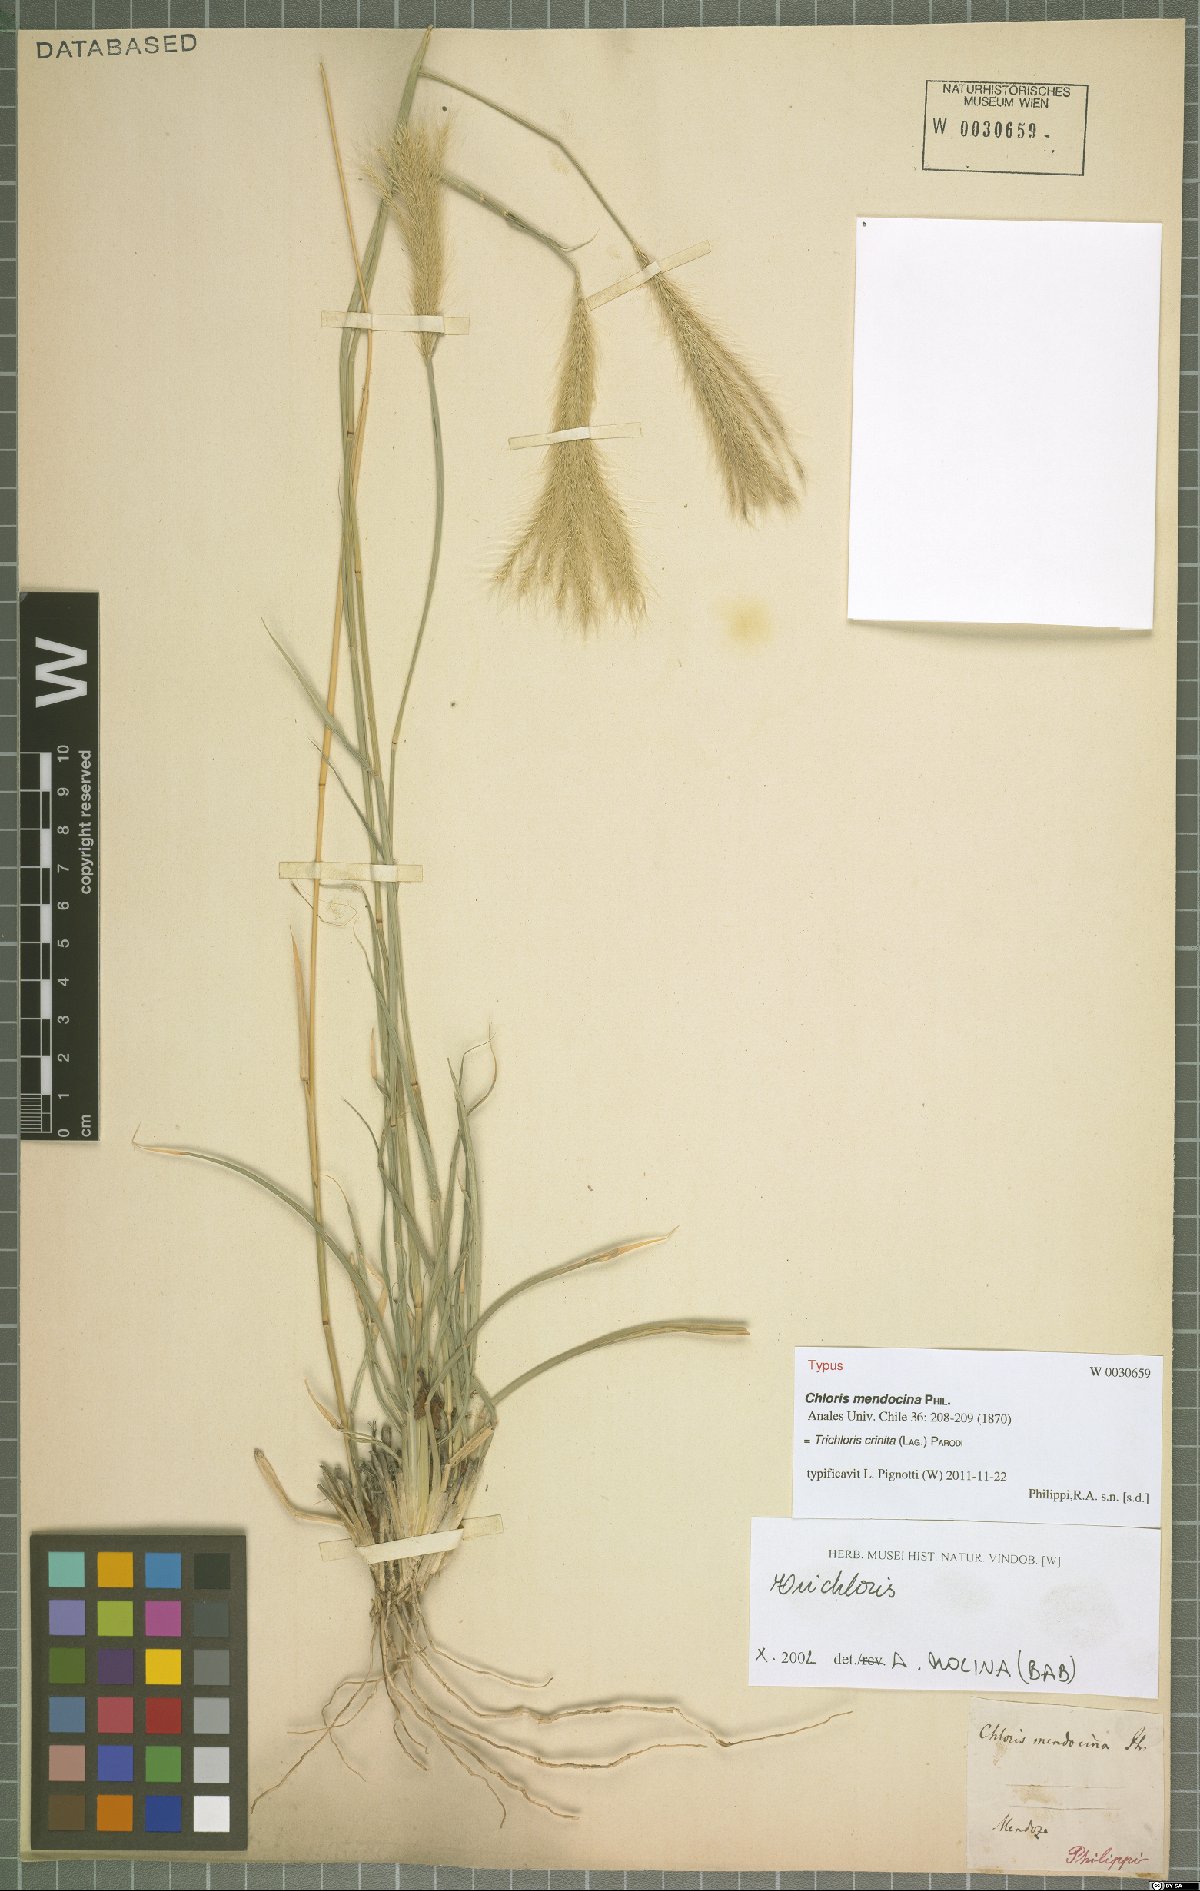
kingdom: Plantae
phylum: Tracheophyta
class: Liliopsida
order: Poales
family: Poaceae
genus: Leptochloa
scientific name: Leptochloa crinita
